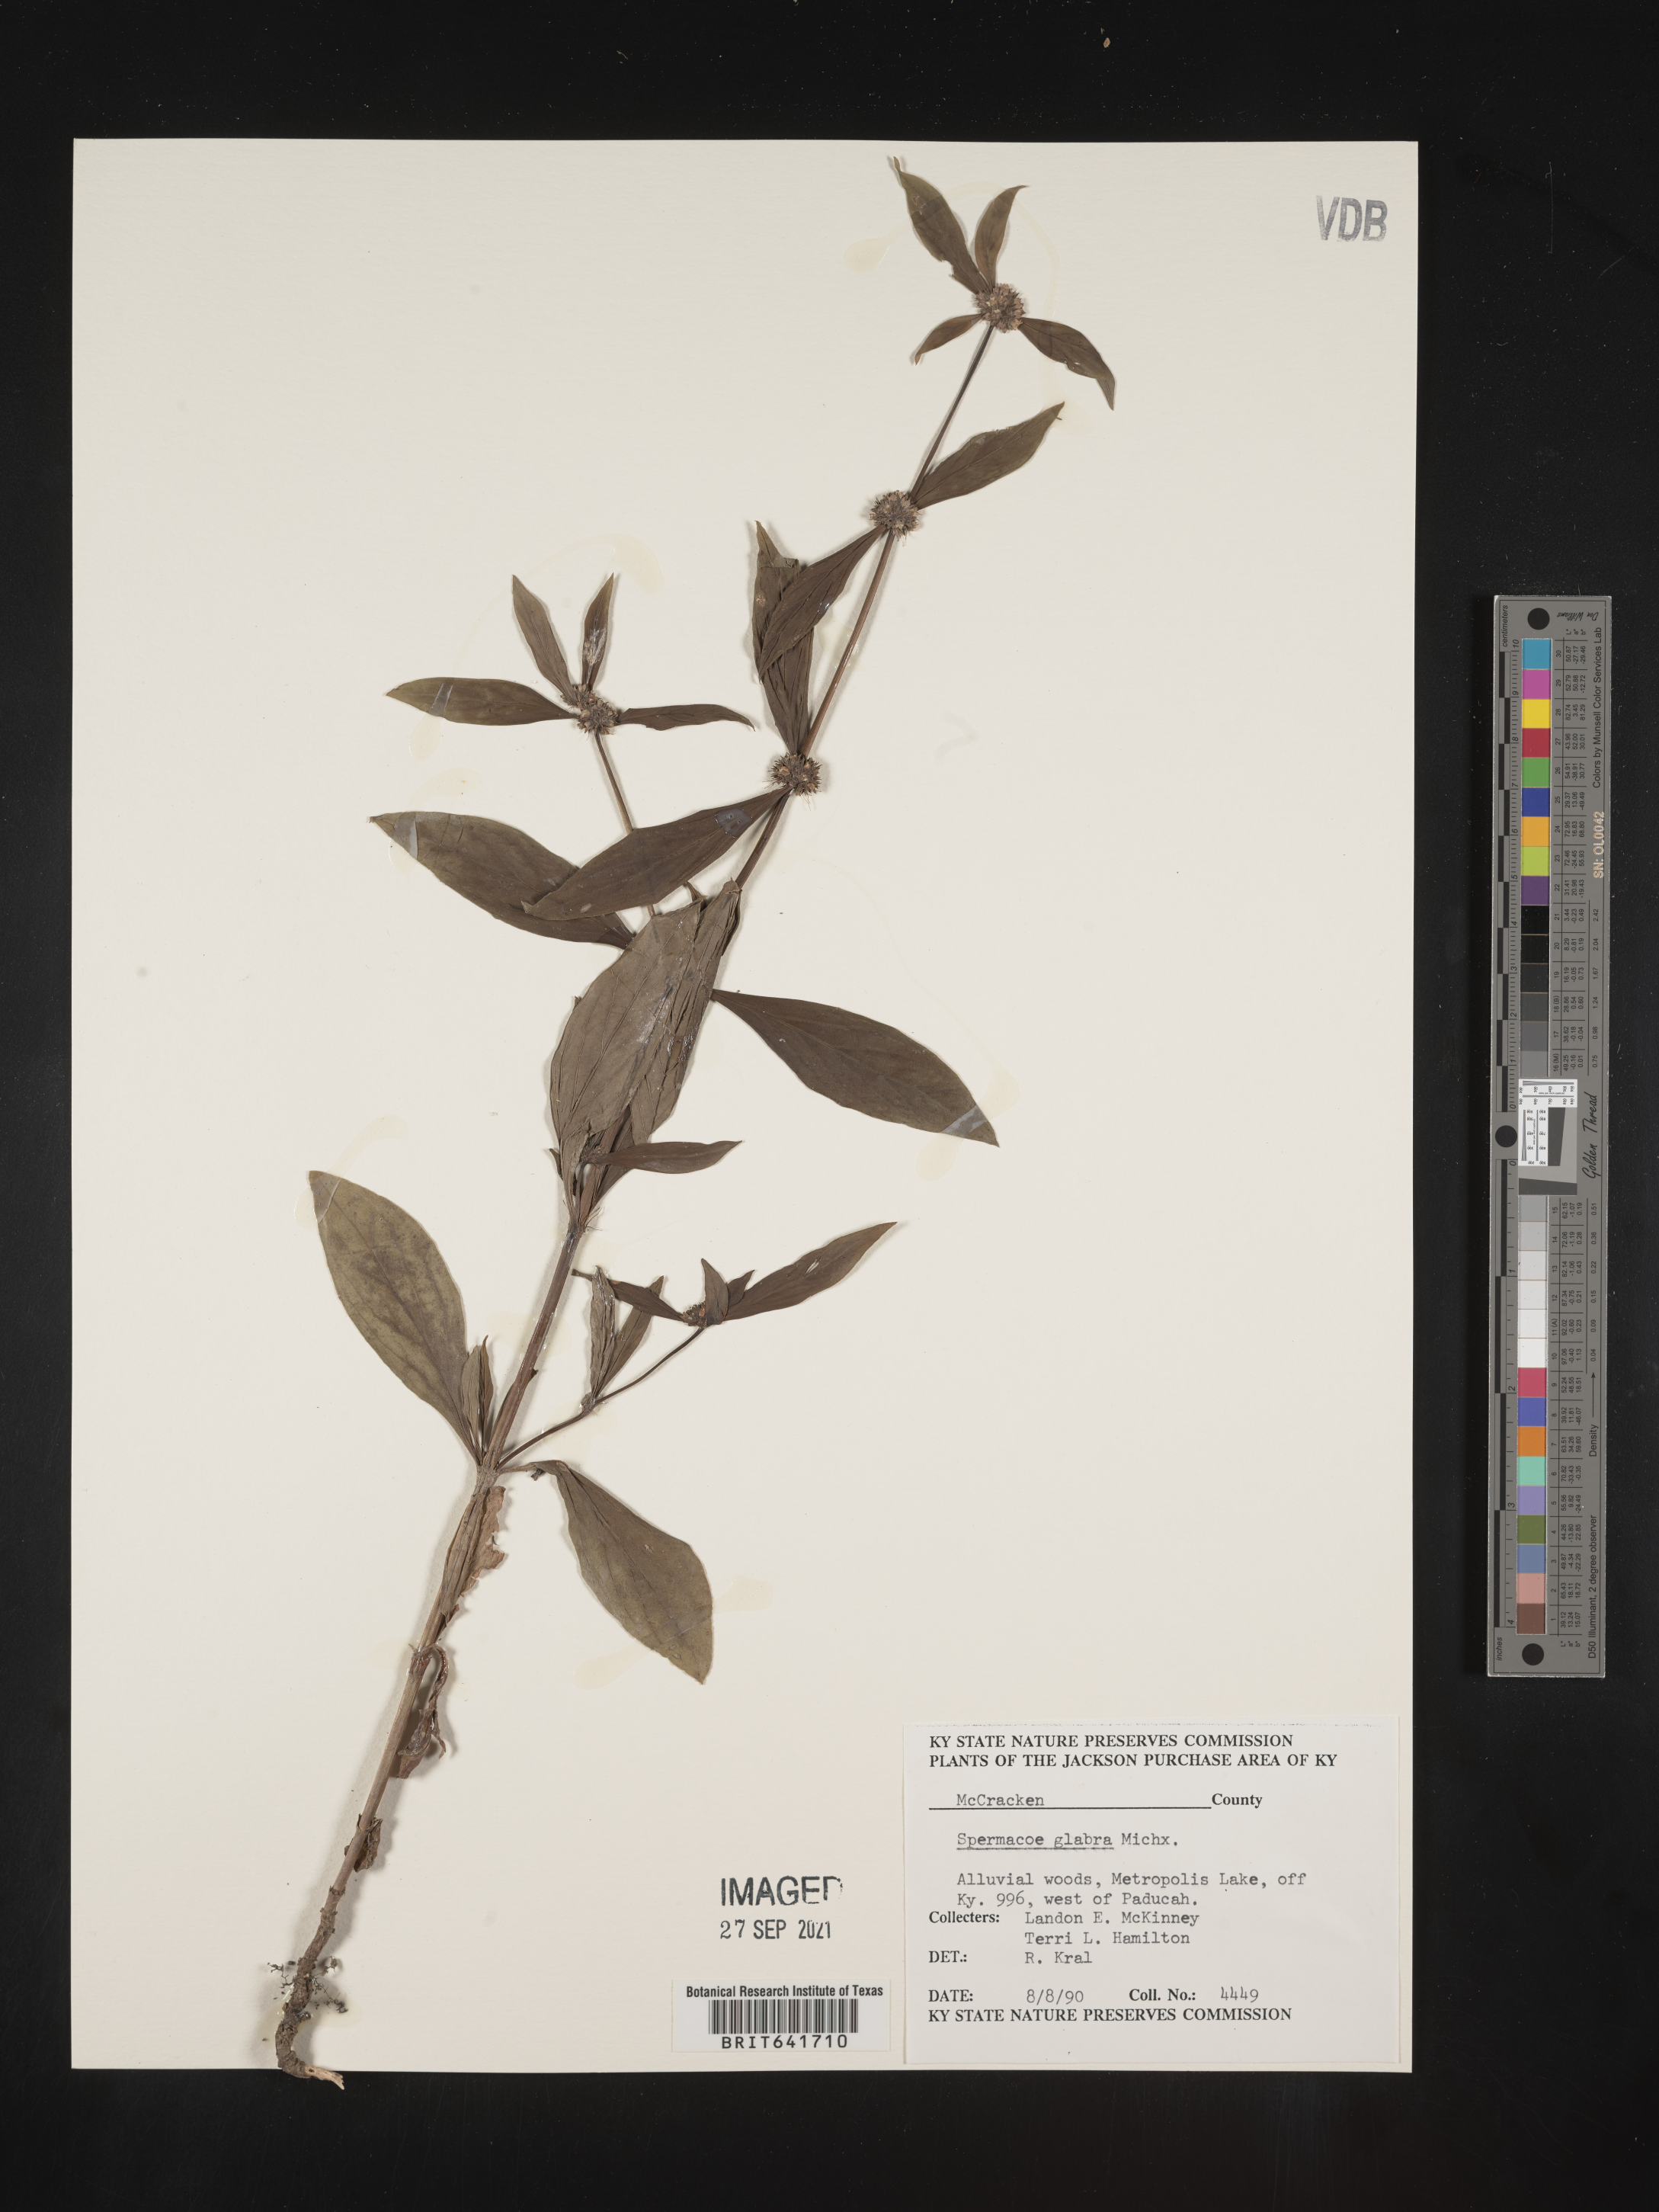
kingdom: Plantae
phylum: Tracheophyta
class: Magnoliopsida
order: Gentianales
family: Rubiaceae
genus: Spermacoce
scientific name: Spermacoce glabra
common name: Smooth buttonweed
